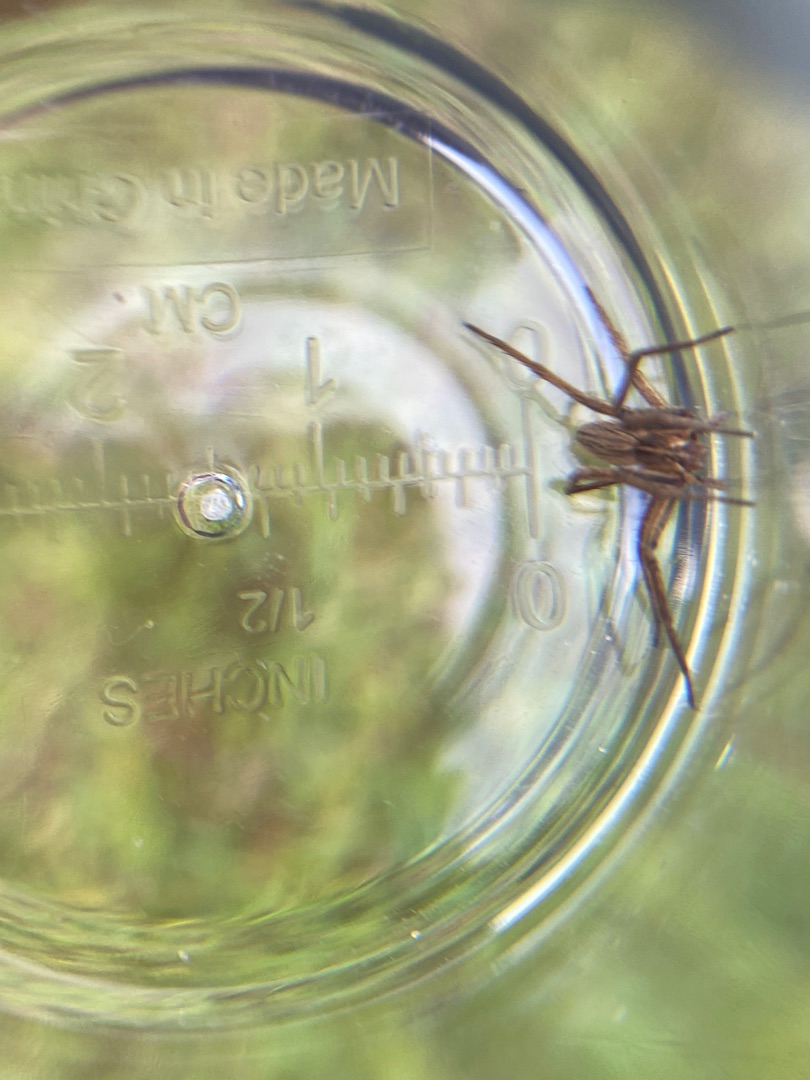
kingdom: Animalia
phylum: Arthropoda
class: Arachnida
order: Araneae
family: Pisauridae
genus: Pisaura
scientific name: Pisaura mirabilis
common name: Almindelig rovedderkop
